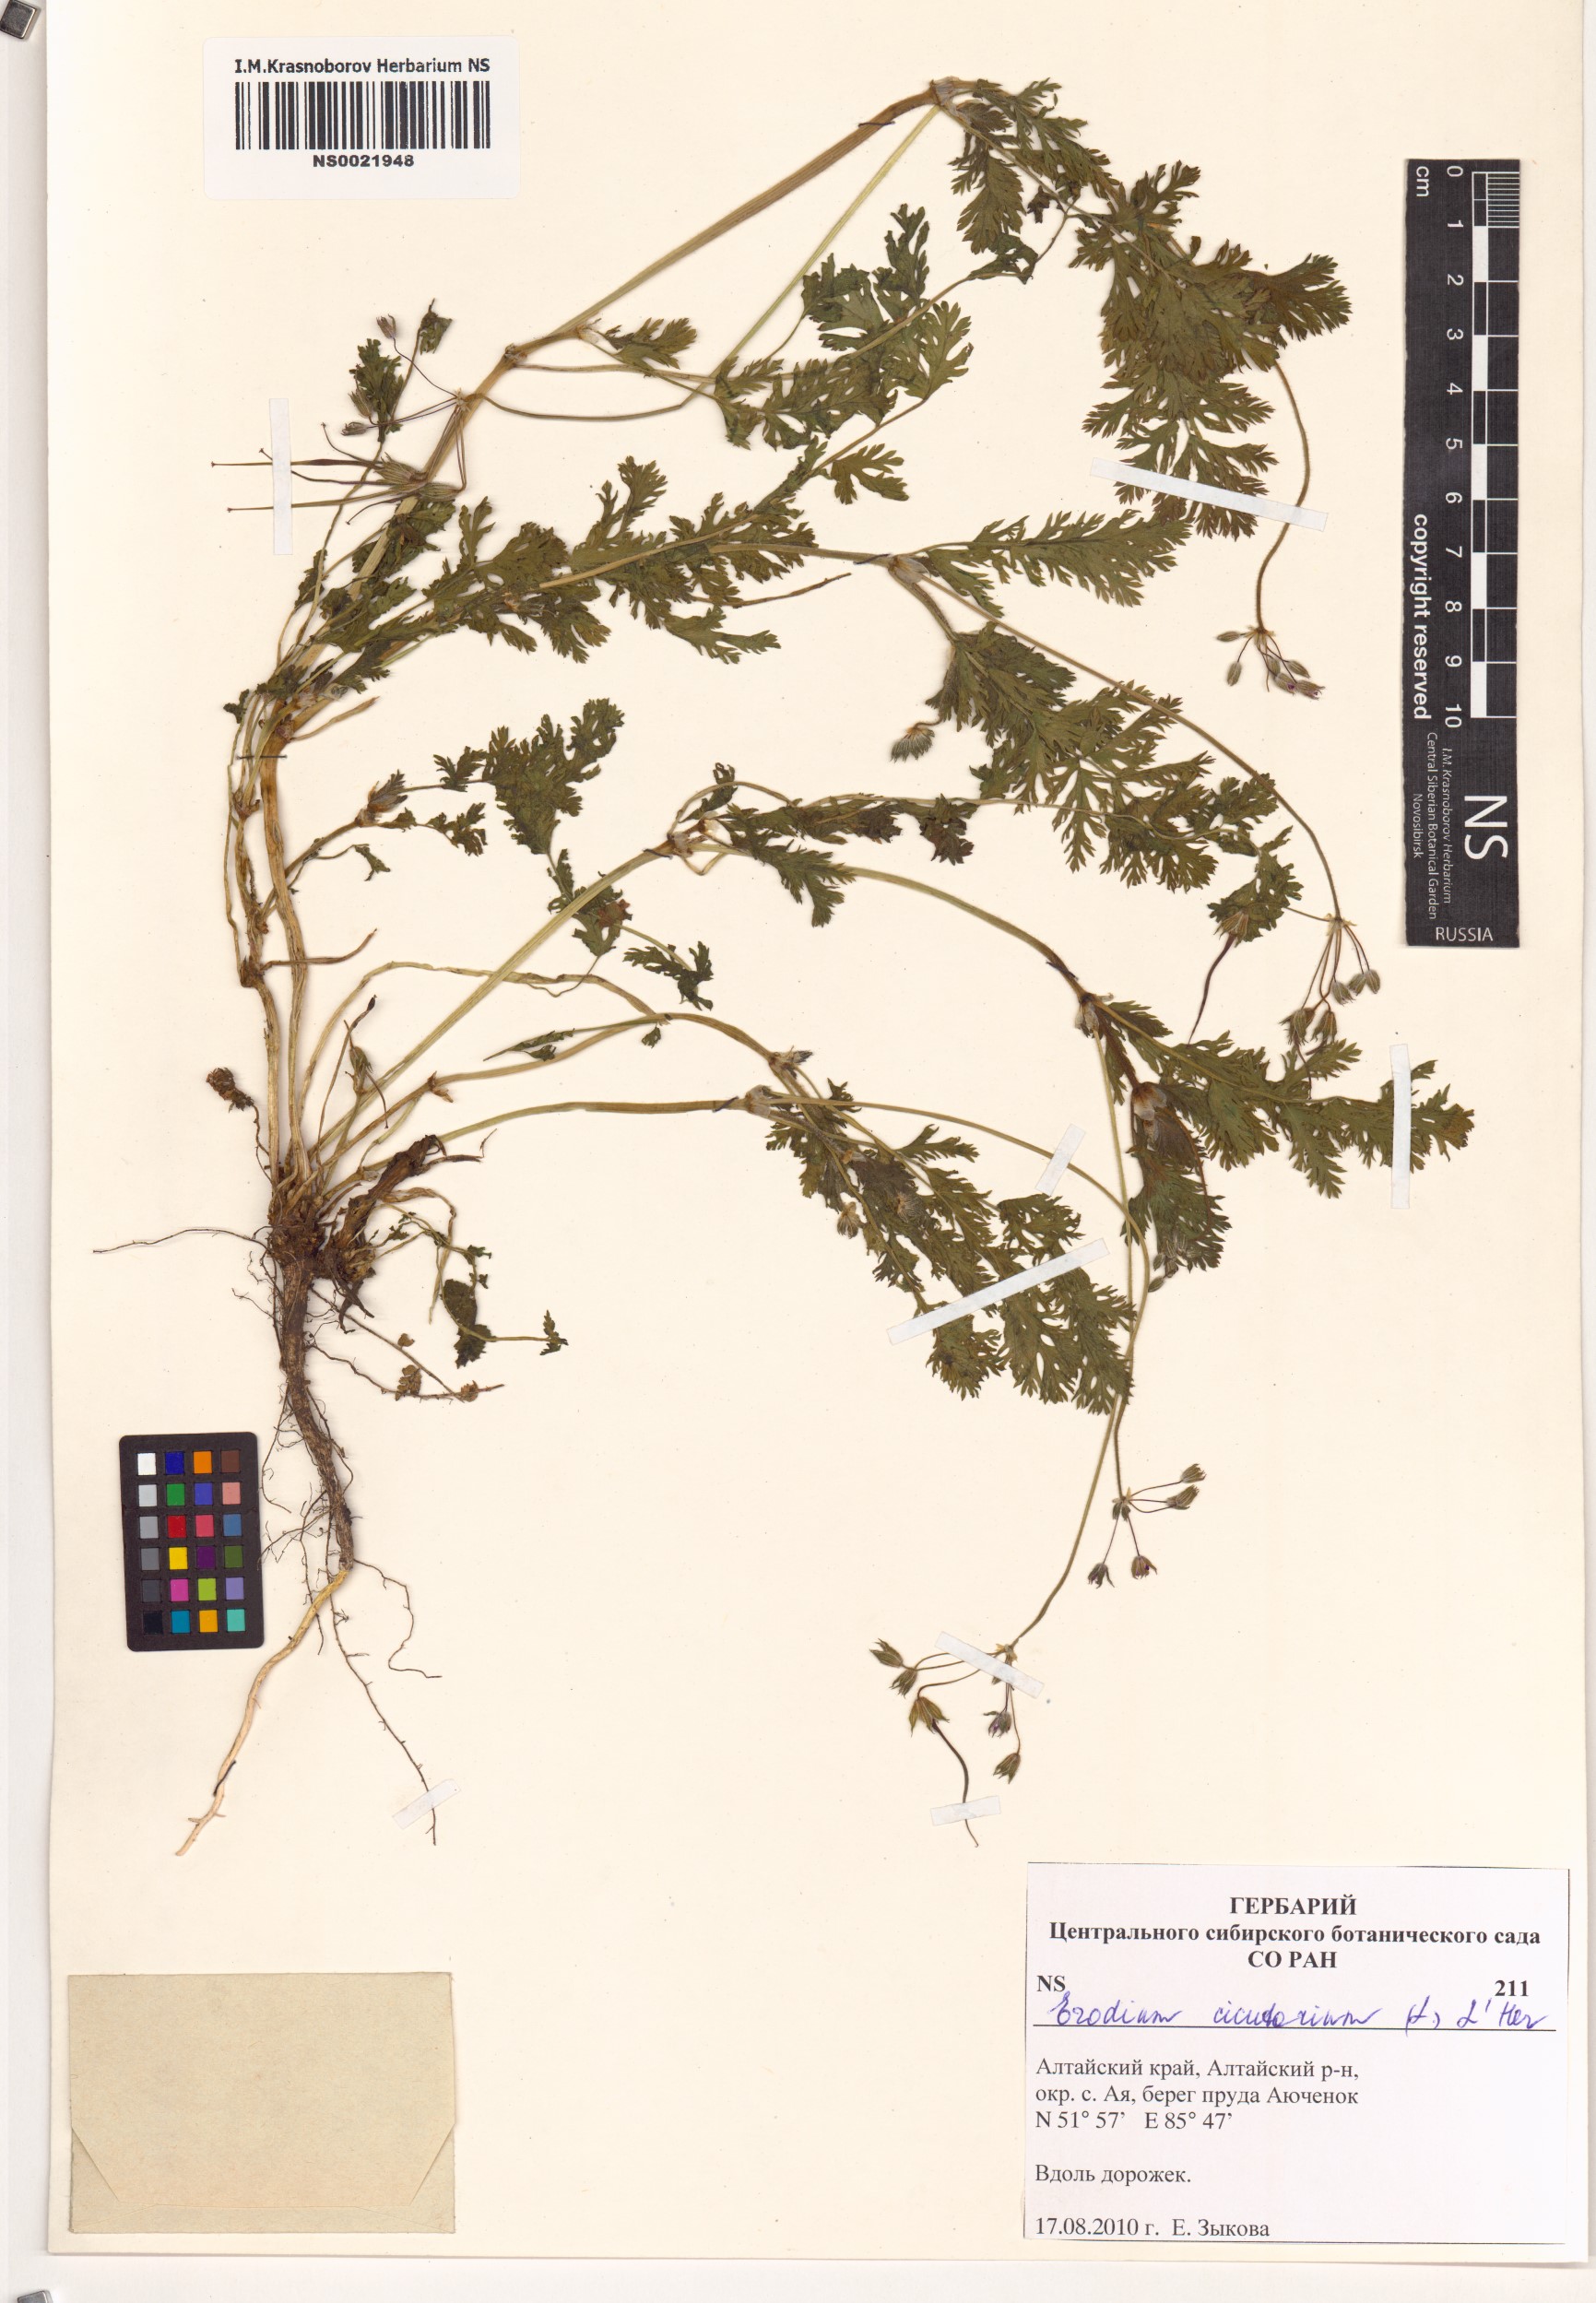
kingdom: Plantae
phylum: Tracheophyta
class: Magnoliopsida
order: Geraniales
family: Geraniaceae
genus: Erodium
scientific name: Erodium cicutarium
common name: Common stork's-bill
